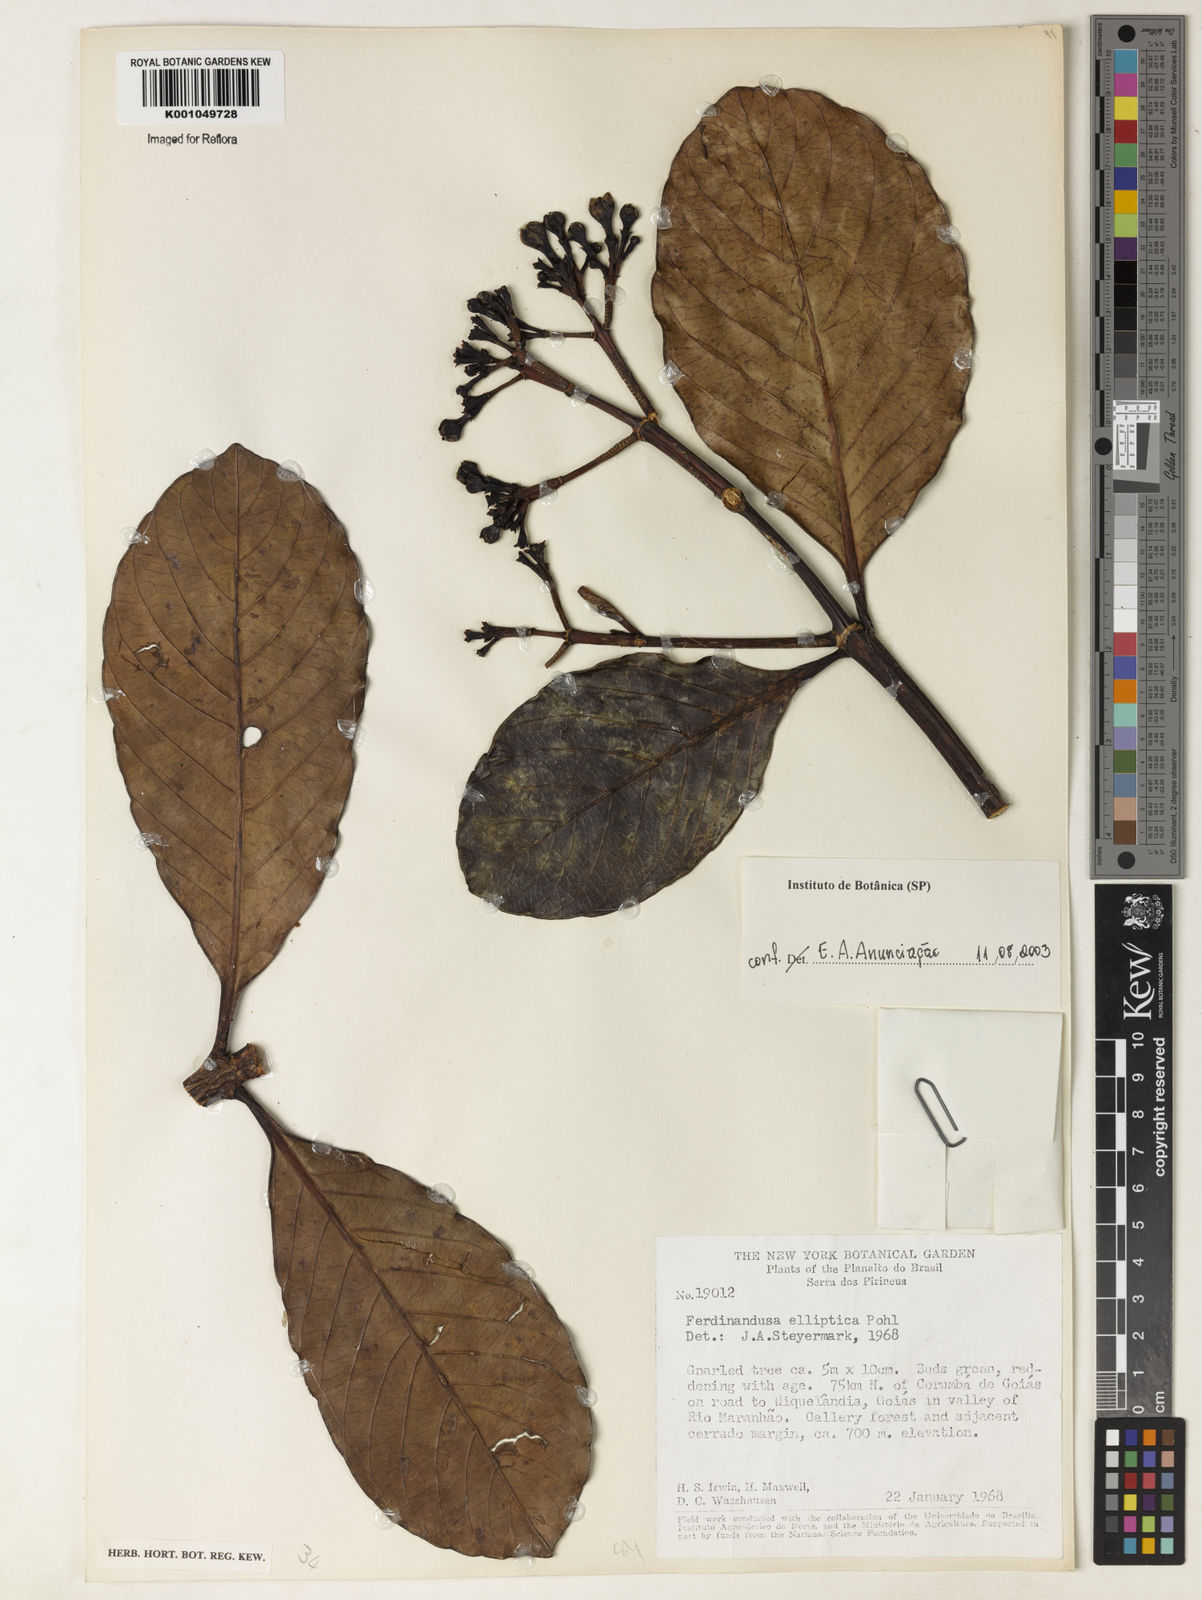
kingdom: Plantae
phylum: Tracheophyta
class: Magnoliopsida
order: Gentianales
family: Rubiaceae
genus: Ferdinandusa
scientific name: Ferdinandusa elliptica
